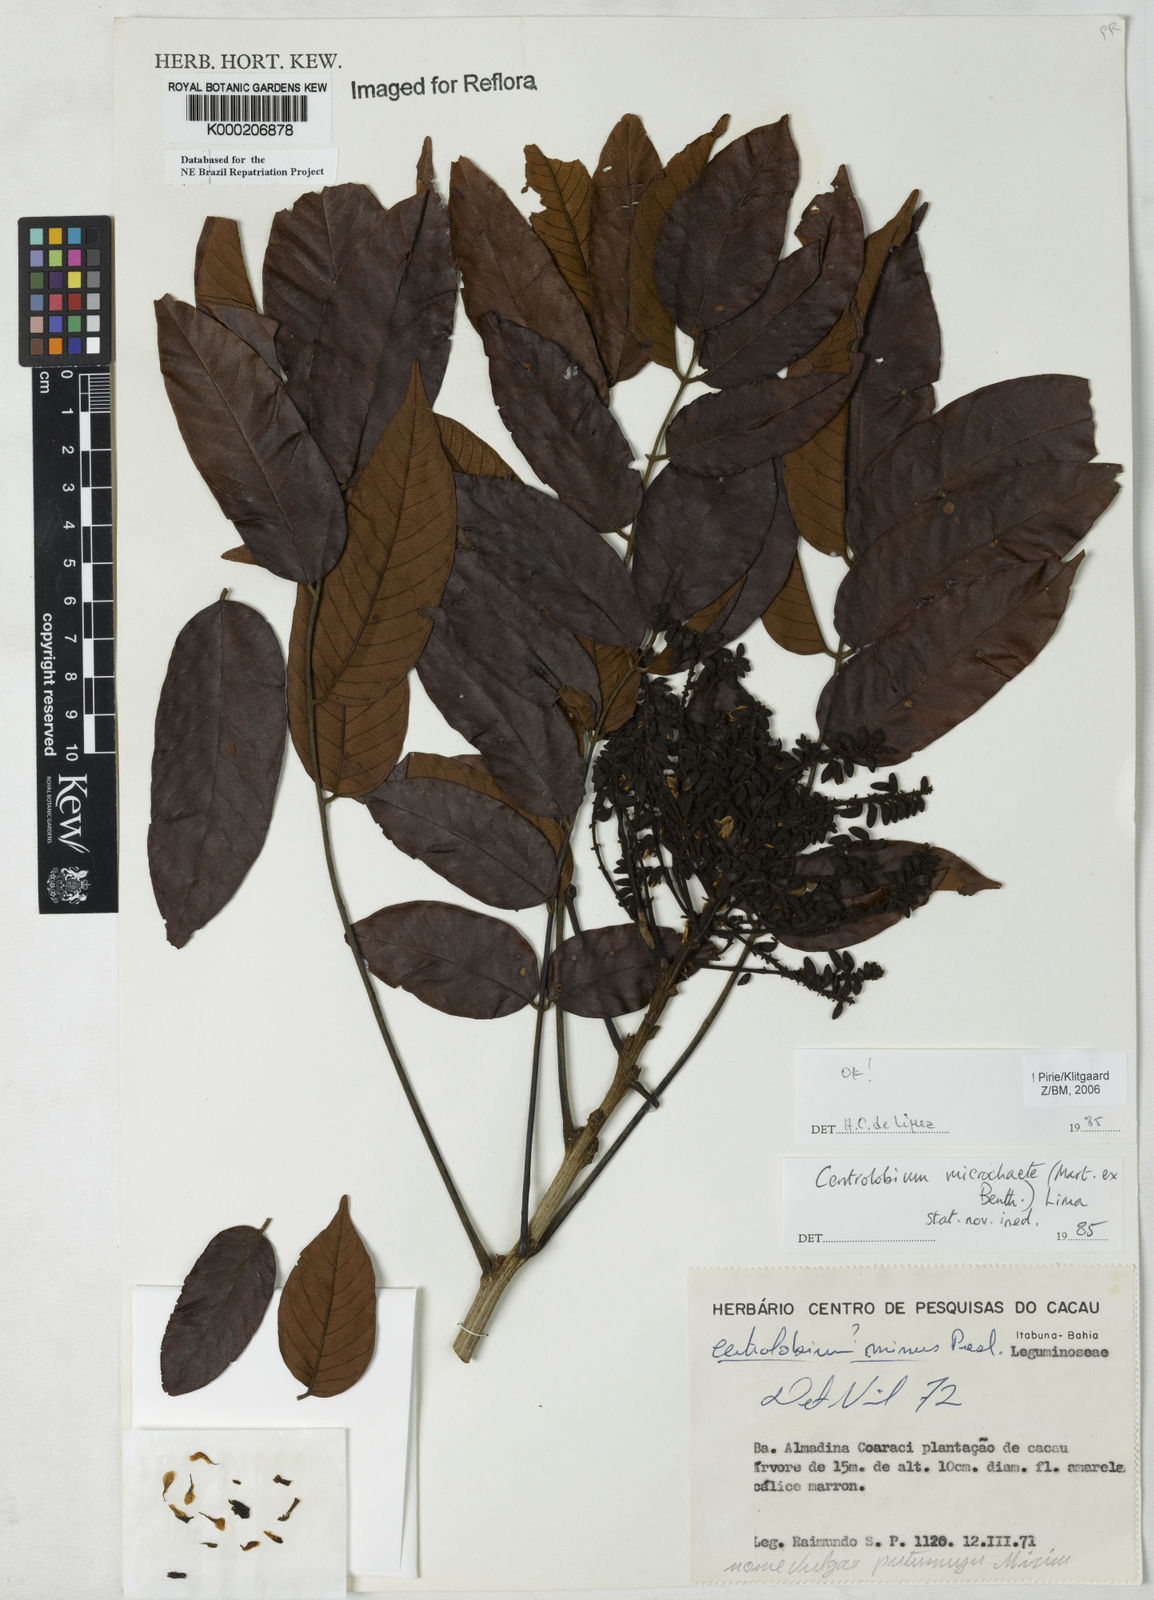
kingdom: Plantae
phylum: Tracheophyta
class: Magnoliopsida
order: Fabales
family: Fabaceae
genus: Centrolobium
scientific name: Centrolobium microchaete
